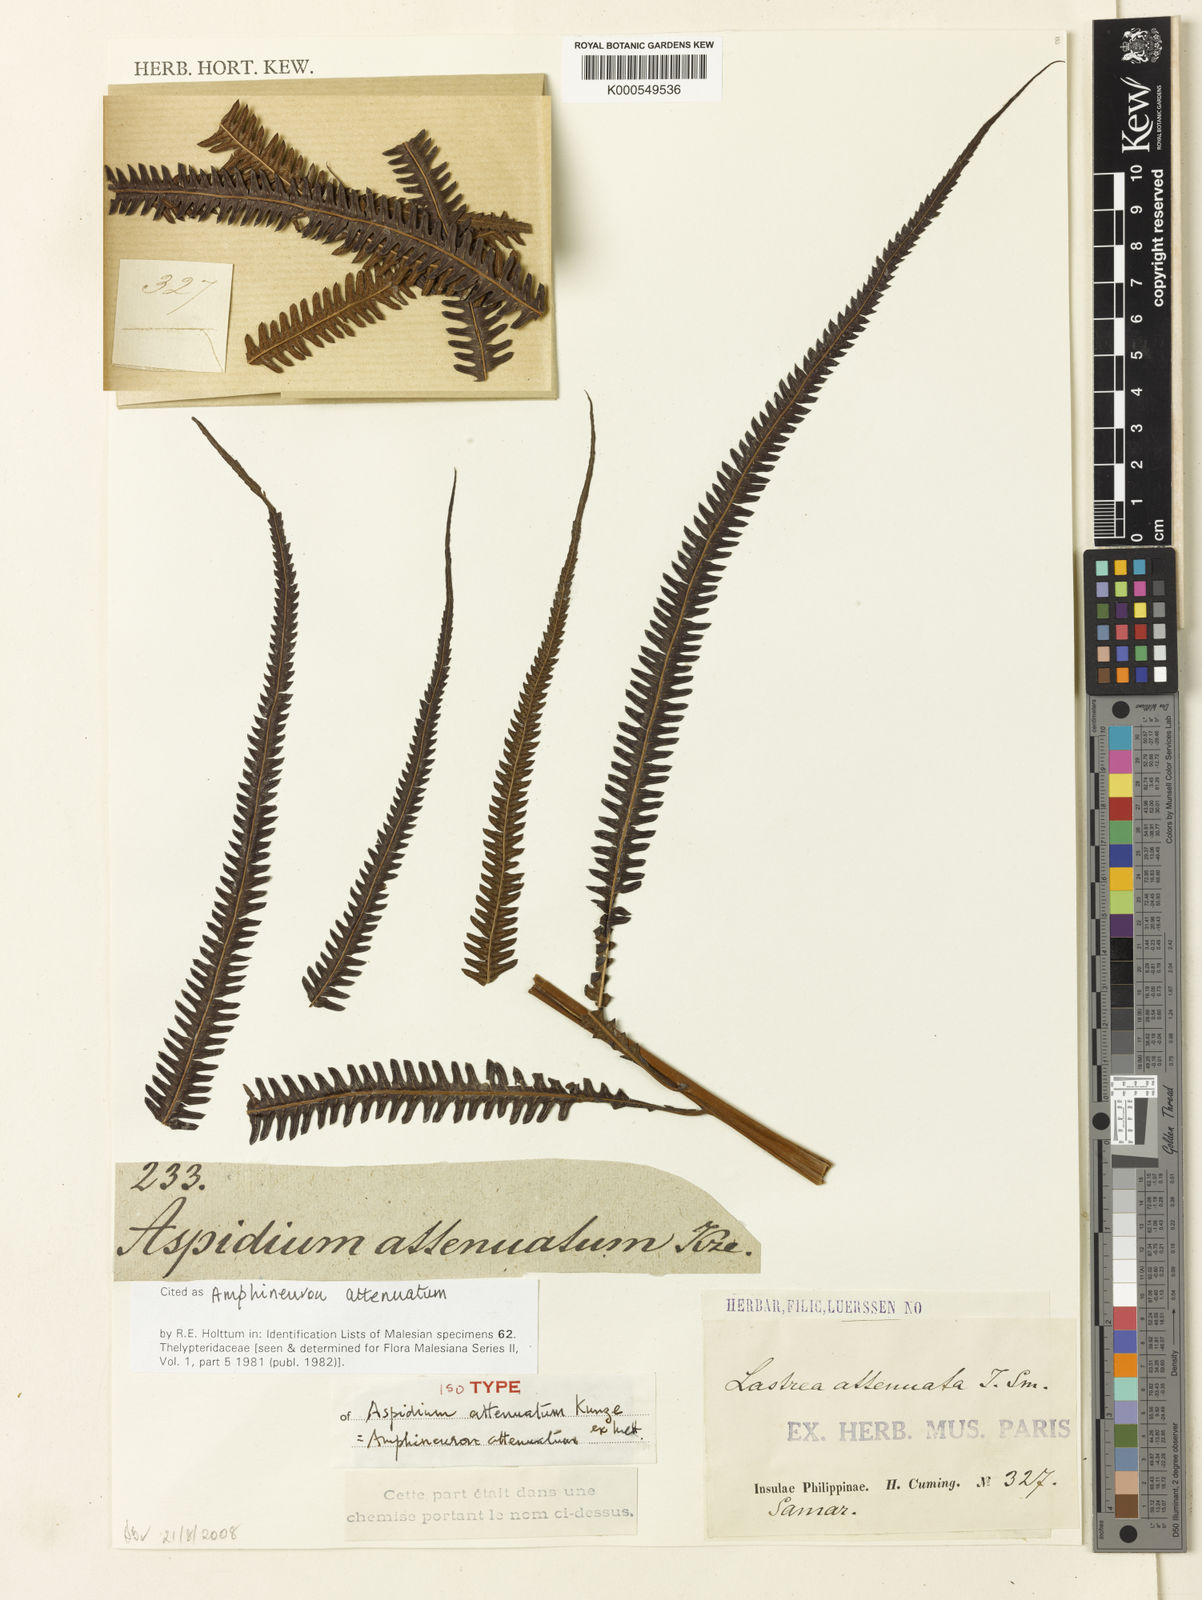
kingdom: Plantae
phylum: Tracheophyta
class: Polypodiopsida
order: Polypodiales
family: Thelypteridaceae
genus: Mesopteris
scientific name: Mesopteris attenuata
